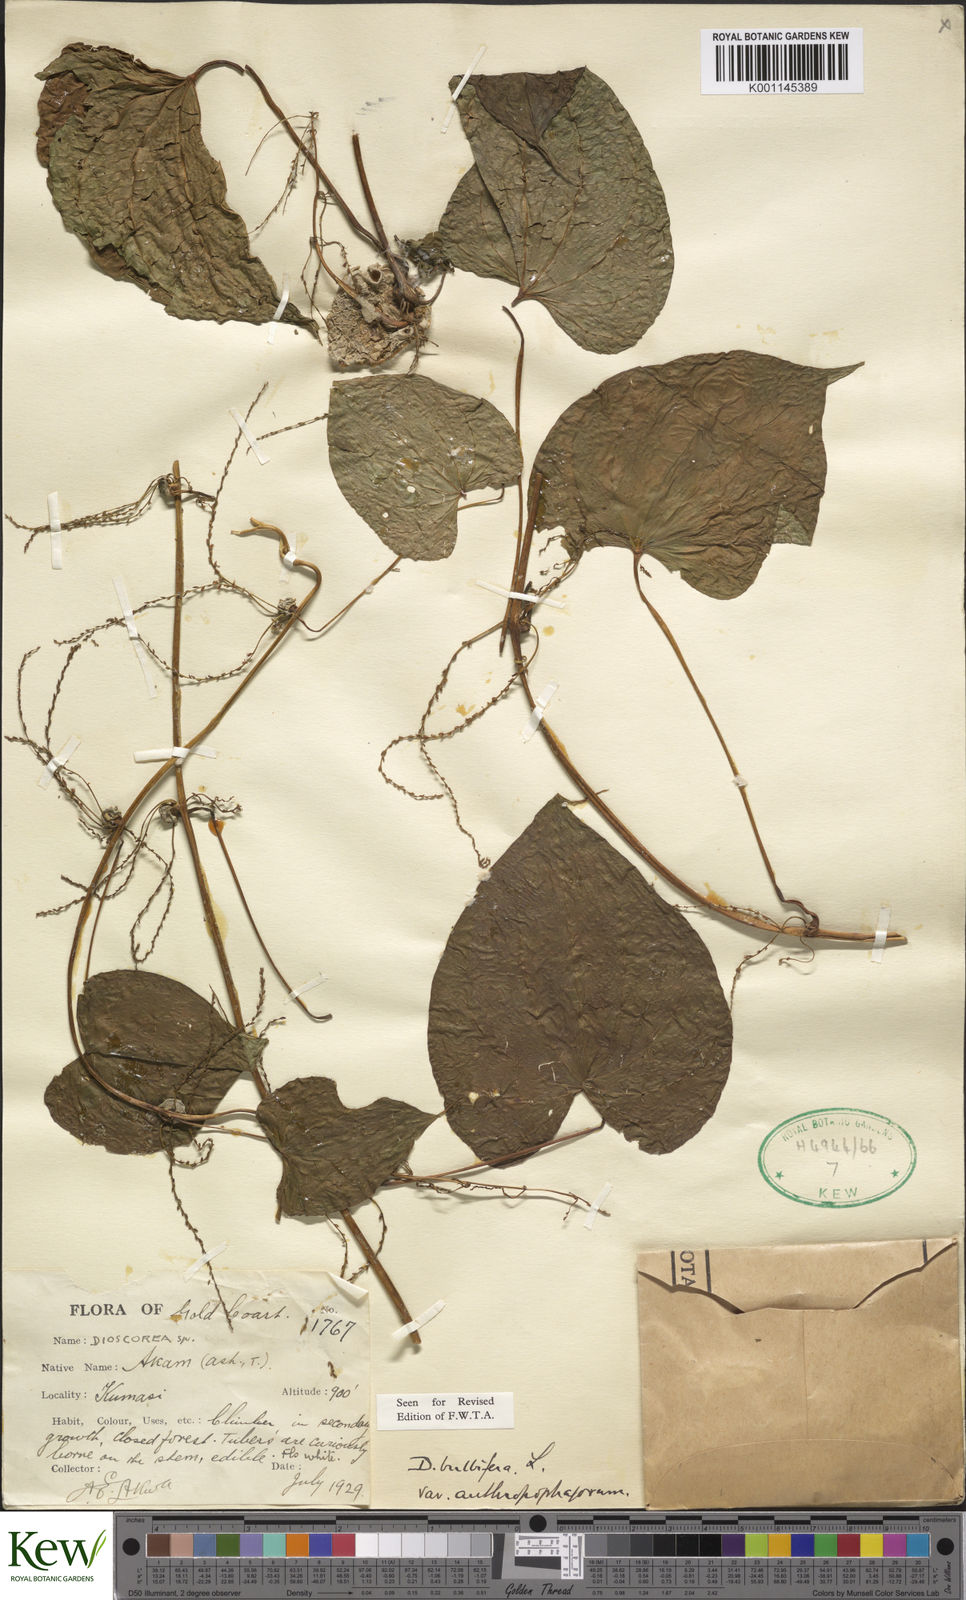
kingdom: Plantae
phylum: Tracheophyta
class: Liliopsida
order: Dioscoreales
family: Dioscoreaceae
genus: Dioscorea
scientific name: Dioscorea bulbifera
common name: Air yam
